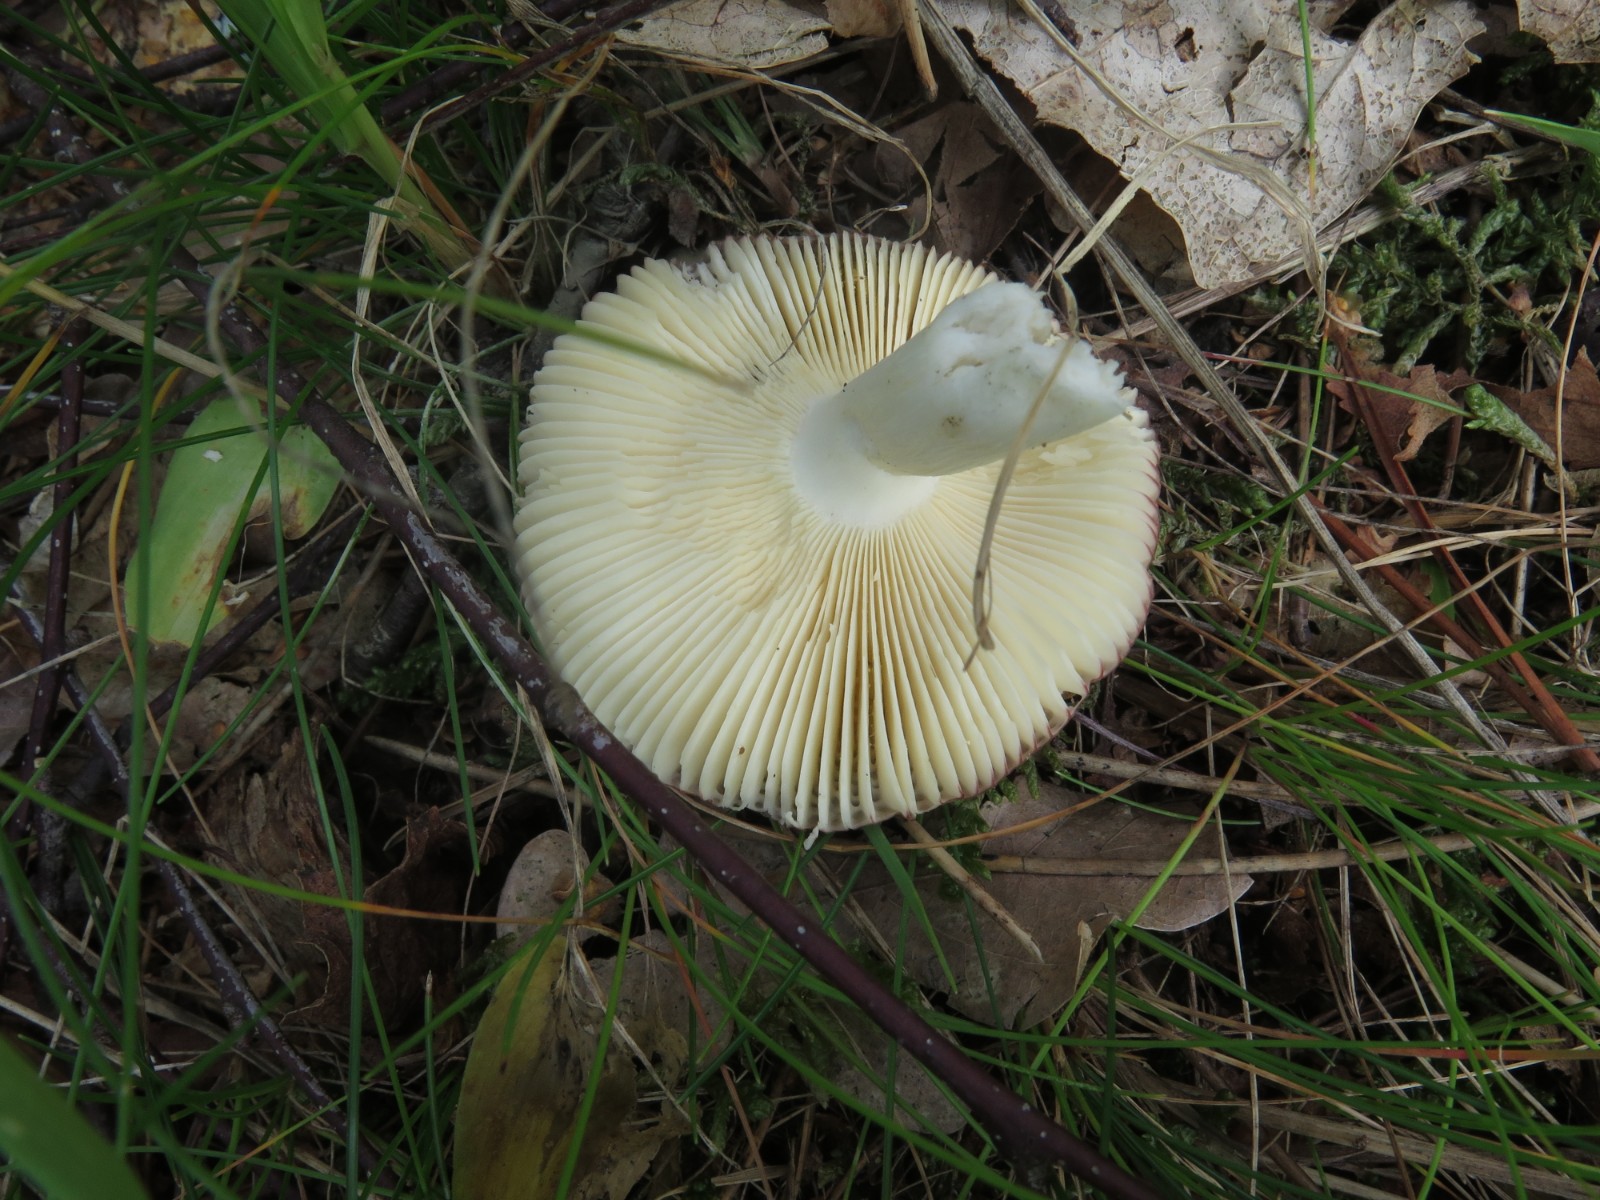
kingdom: Fungi
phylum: Basidiomycota
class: Agaricomycetes
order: Russulales
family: Russulaceae
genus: Russula
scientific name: Russula depallens
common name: falmende skørhat
